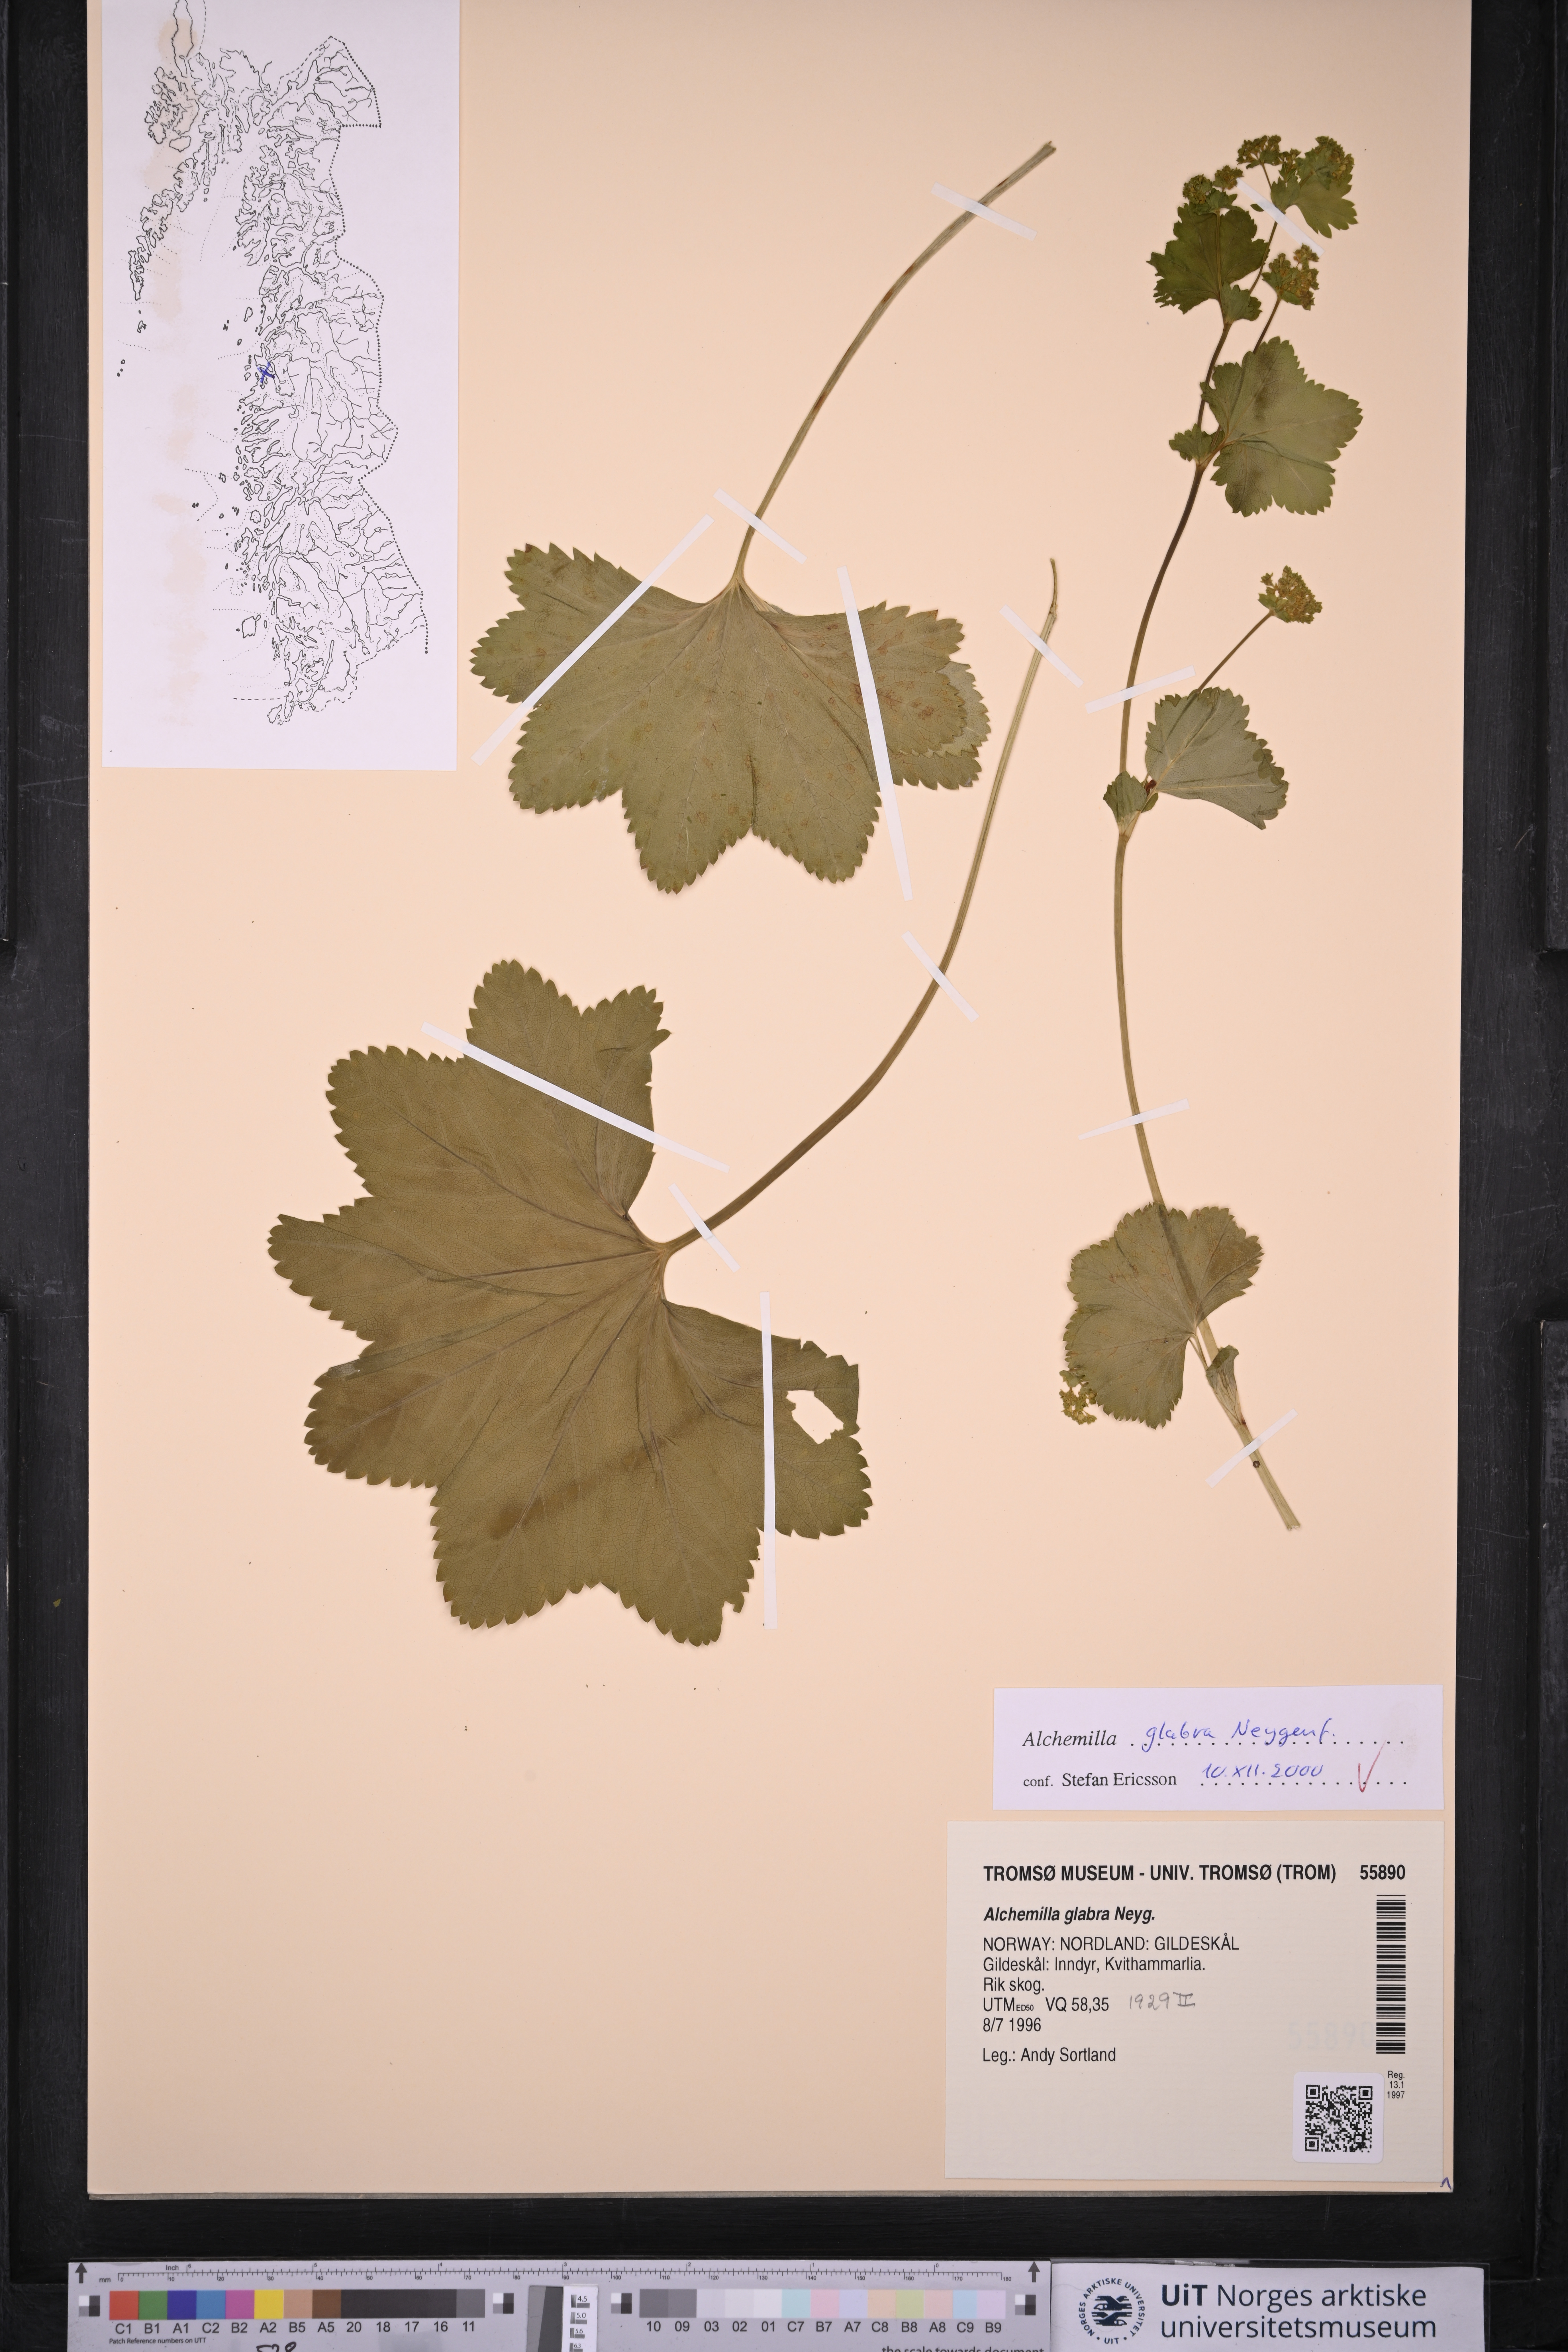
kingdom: Plantae
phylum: Tracheophyta
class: Magnoliopsida
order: Rosales
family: Rosaceae
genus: Alchemilla
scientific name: Alchemilla glabra
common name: Smooth lady's-mantle
